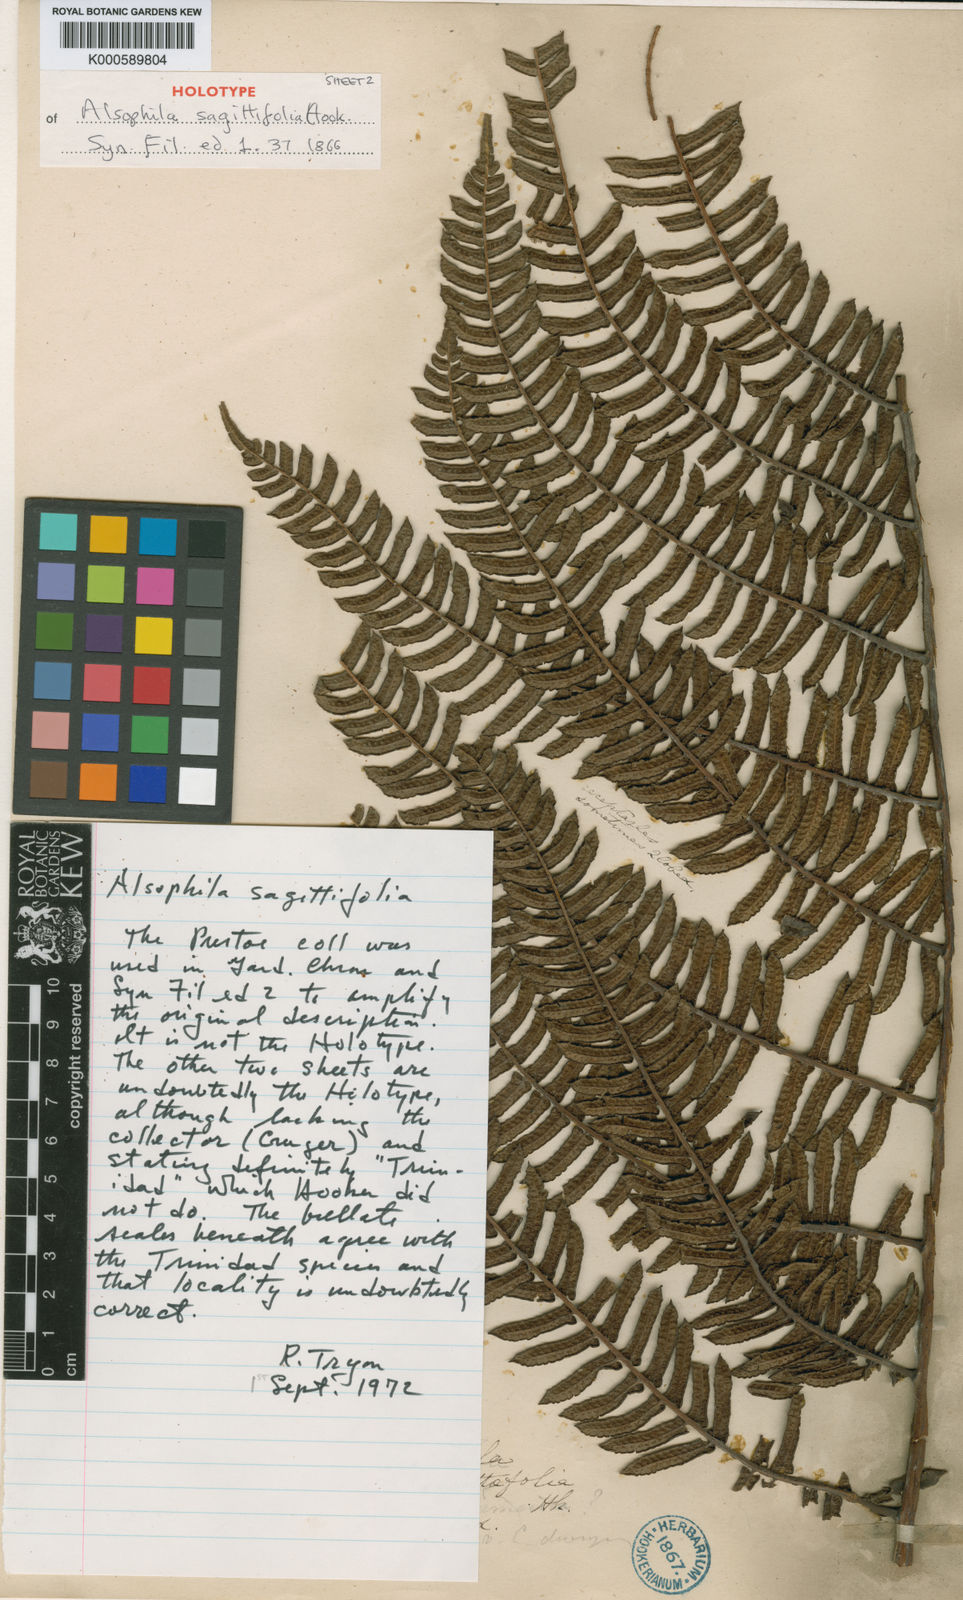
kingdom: Plantae
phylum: Tracheophyta
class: Polypodiopsida
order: Cyatheales
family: Cyatheaceae
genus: Cyathea
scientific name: Cyathea sagittifolia
